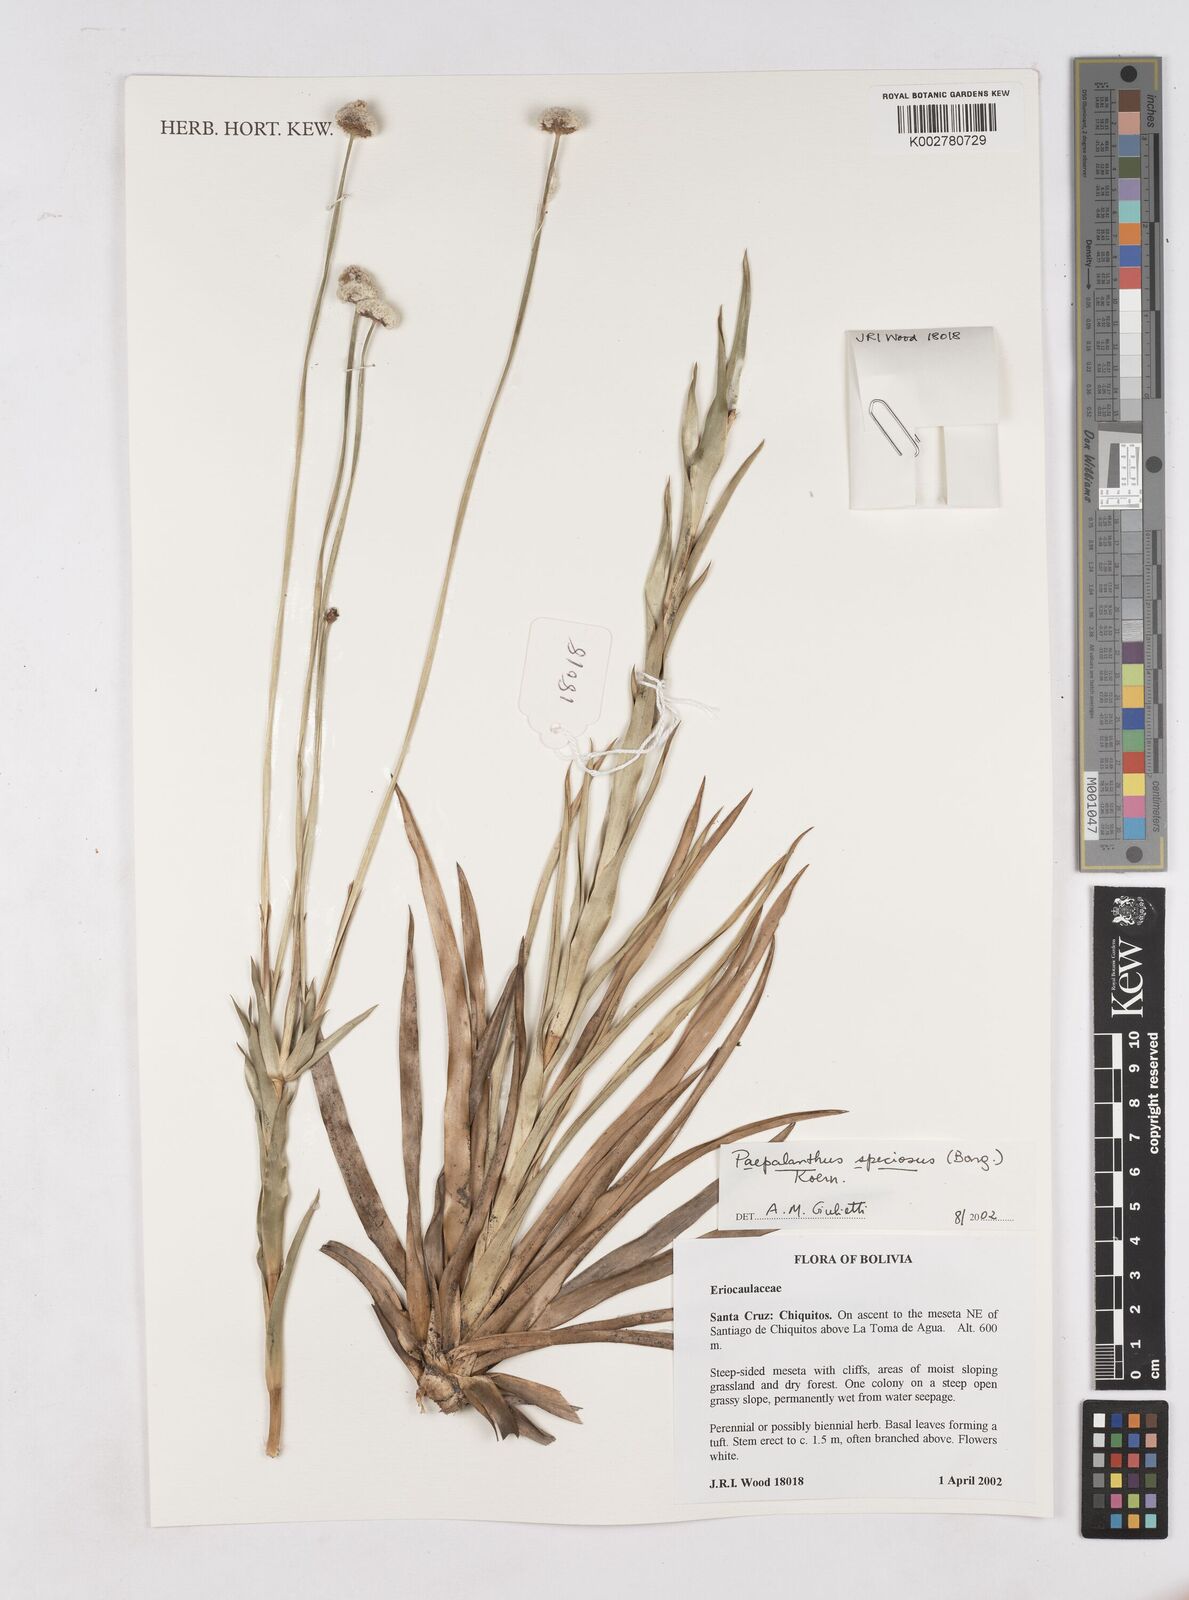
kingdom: Plantae
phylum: Tracheophyta
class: Liliopsida
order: Poales
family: Eriocaulaceae
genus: Paepalanthus
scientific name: Paepalanthus chiquitensis
